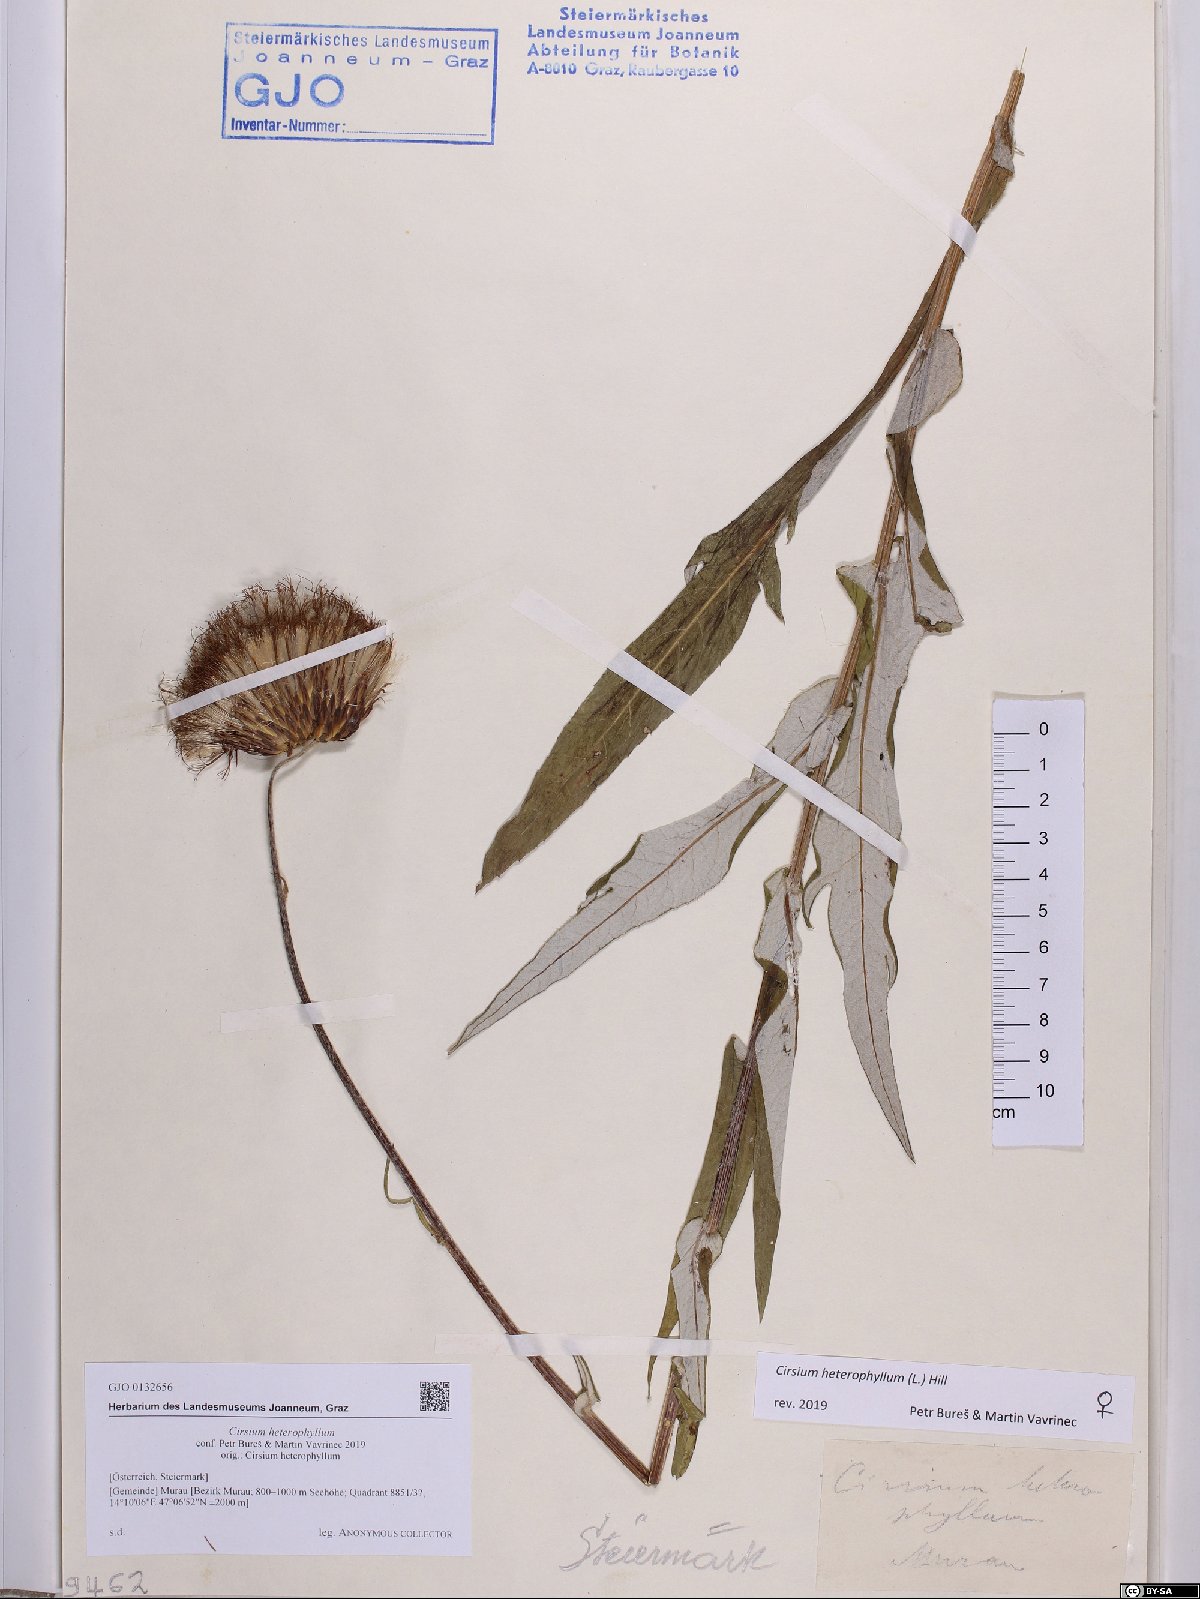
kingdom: Plantae
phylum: Tracheophyta
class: Magnoliopsida
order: Asterales
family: Asteraceae
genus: Cirsium
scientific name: Cirsium heterophyllum
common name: Melancholy thistle
